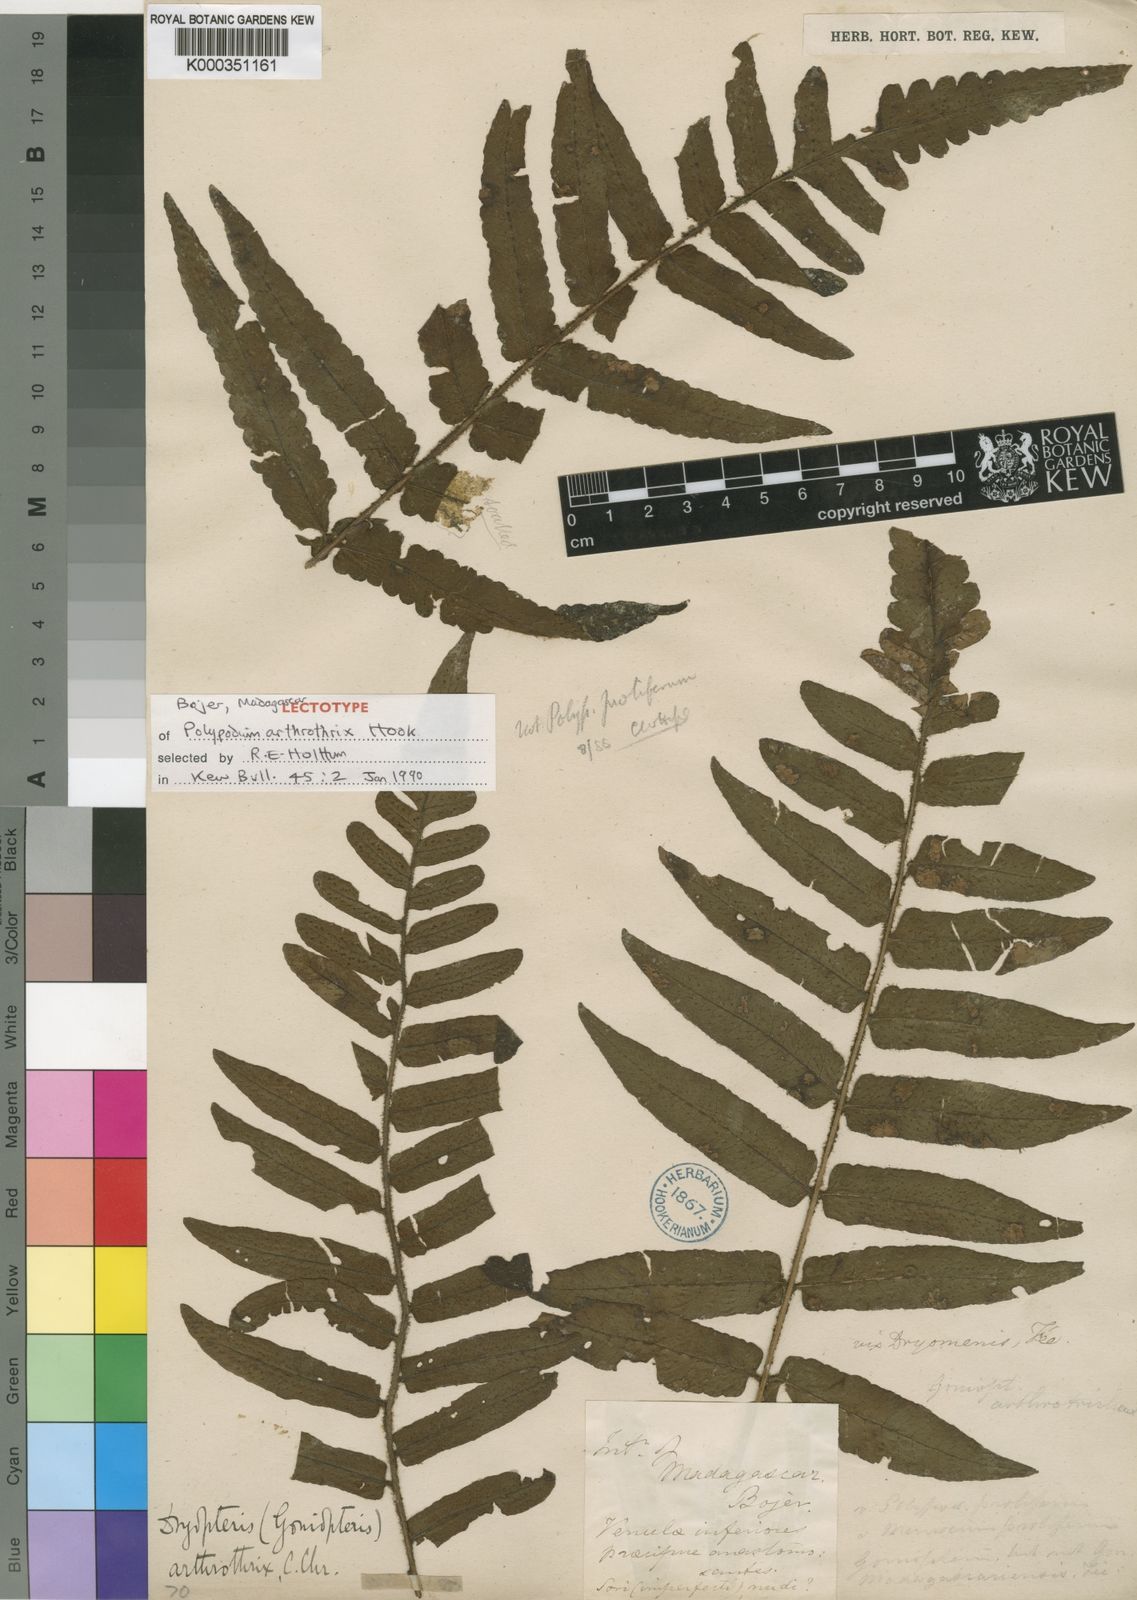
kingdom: Plantae
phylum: Tracheophyta
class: Polypodiopsida
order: Polypodiales
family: Dryopteridaceae
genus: Ctenitis
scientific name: Ctenitis arthrothrix
